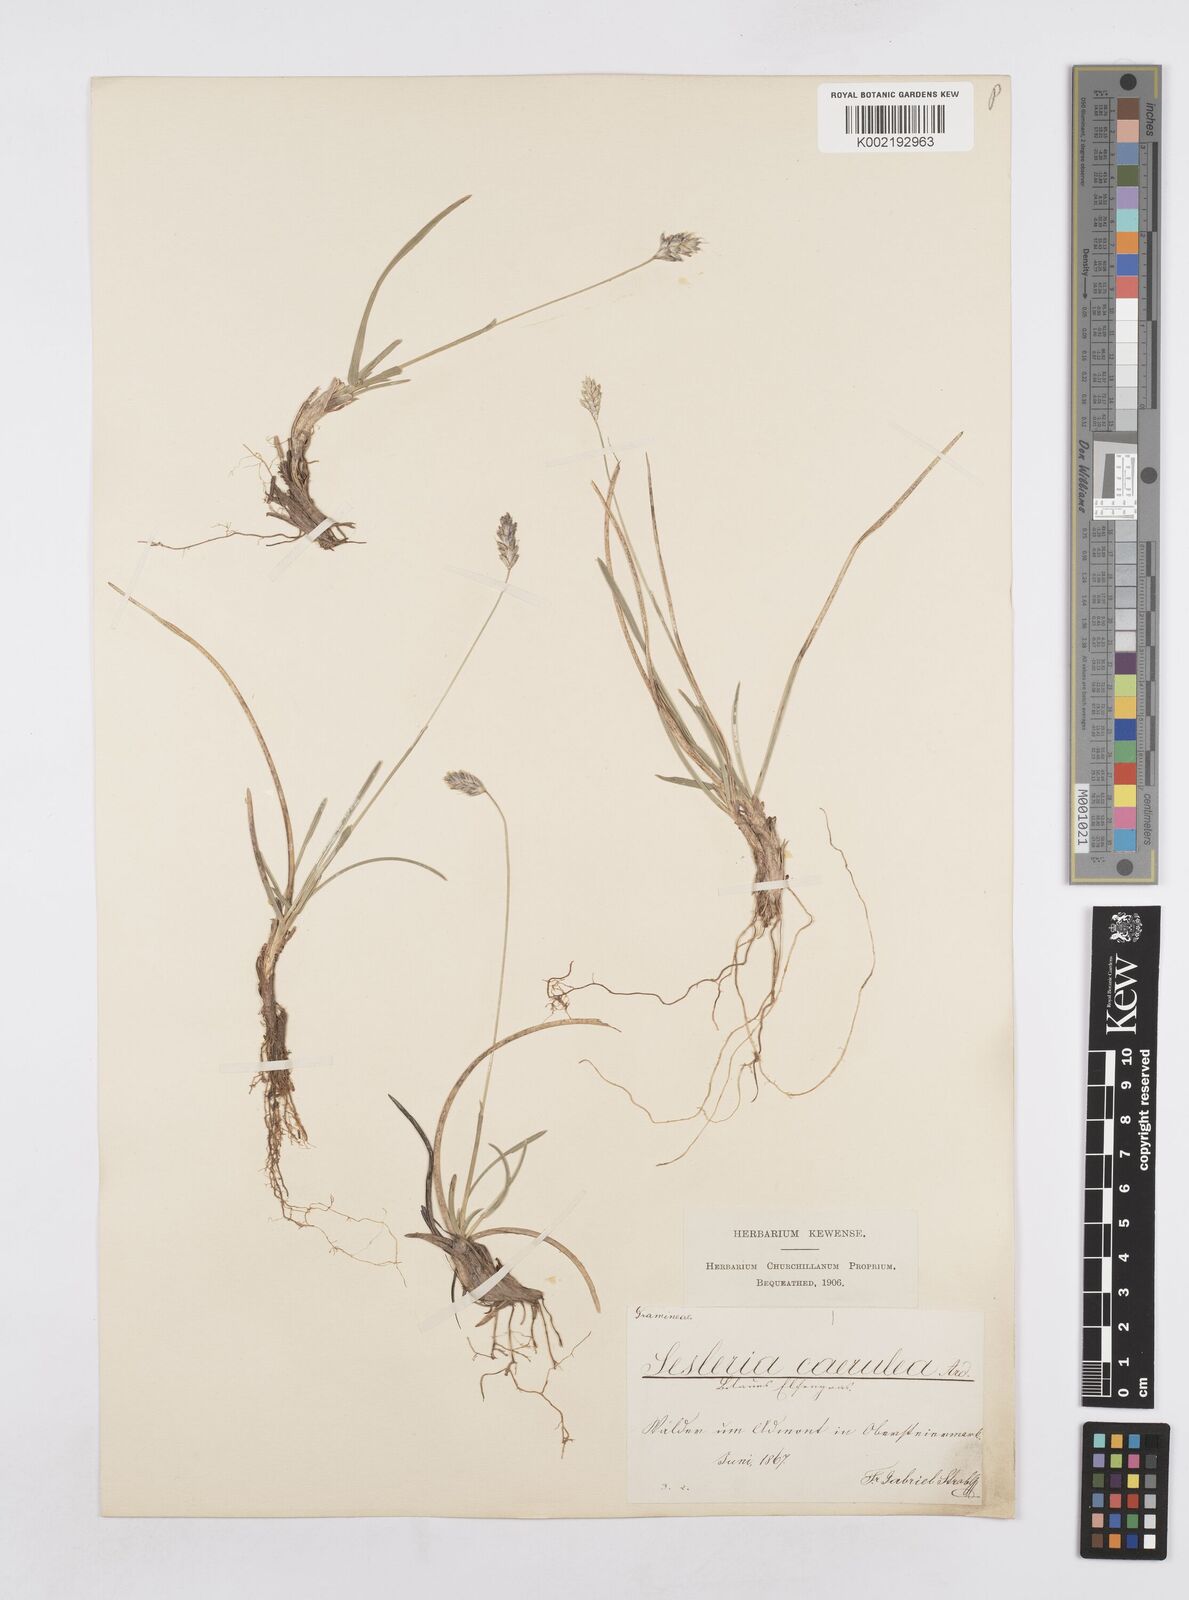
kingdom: Plantae
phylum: Tracheophyta
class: Liliopsida
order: Poales
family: Poaceae
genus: Sesleria
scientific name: Sesleria caerulea
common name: Blue moor-grass
